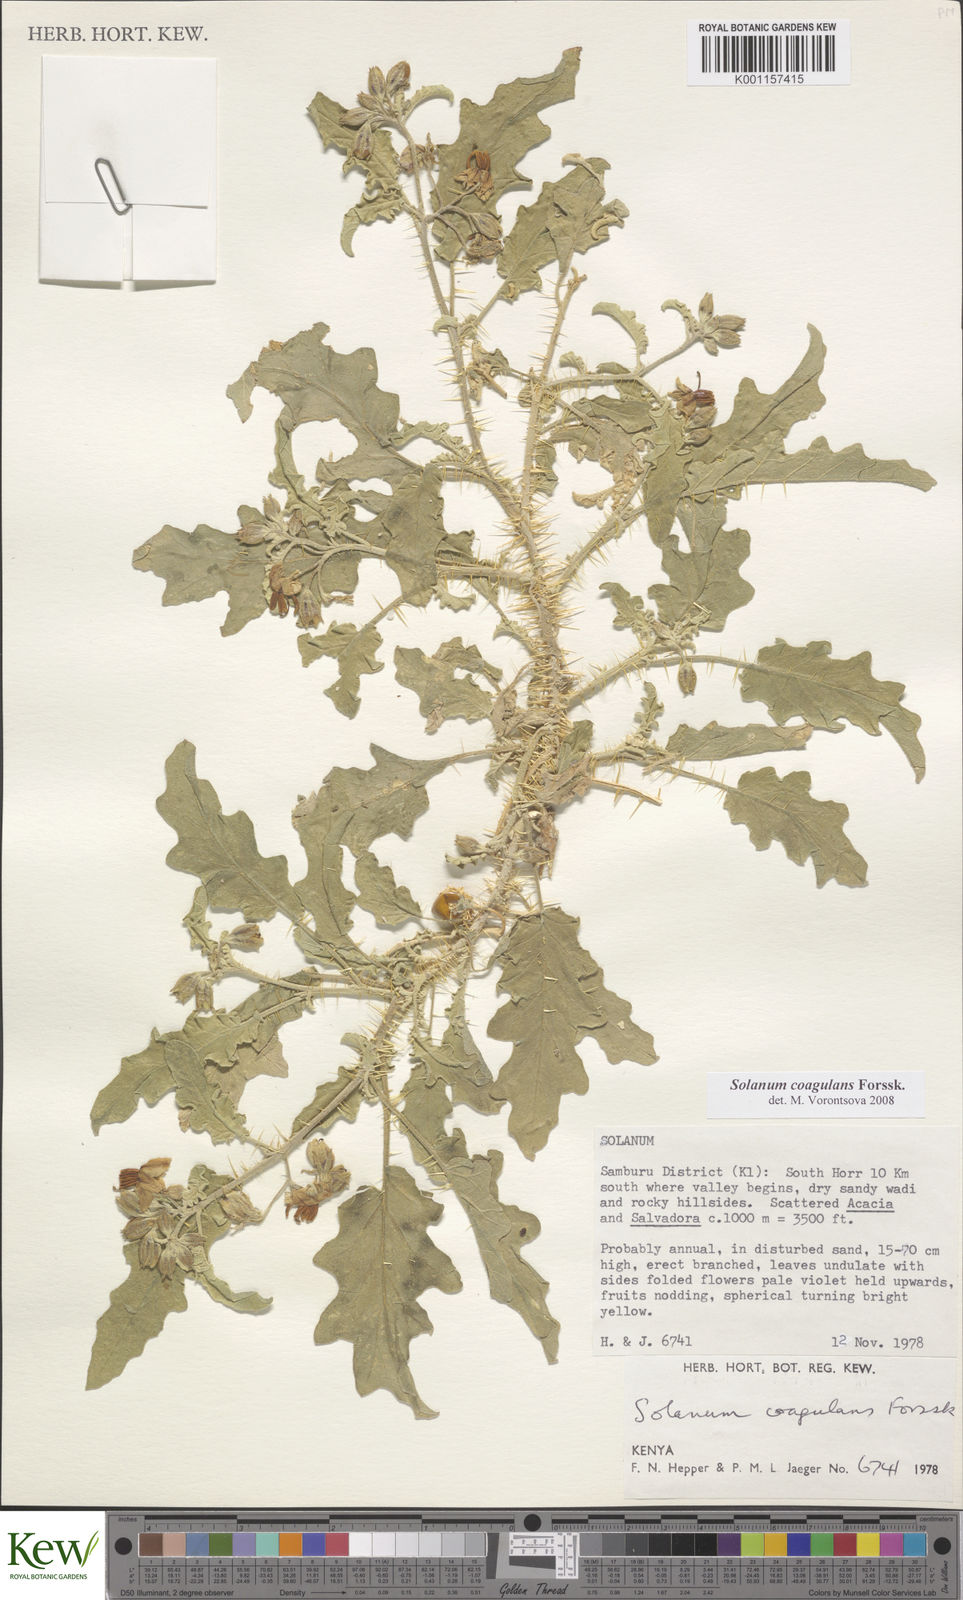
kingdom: Plantae
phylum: Tracheophyta
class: Magnoliopsida
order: Solanales
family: Solanaceae
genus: Solanum
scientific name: Solanum coagulans
